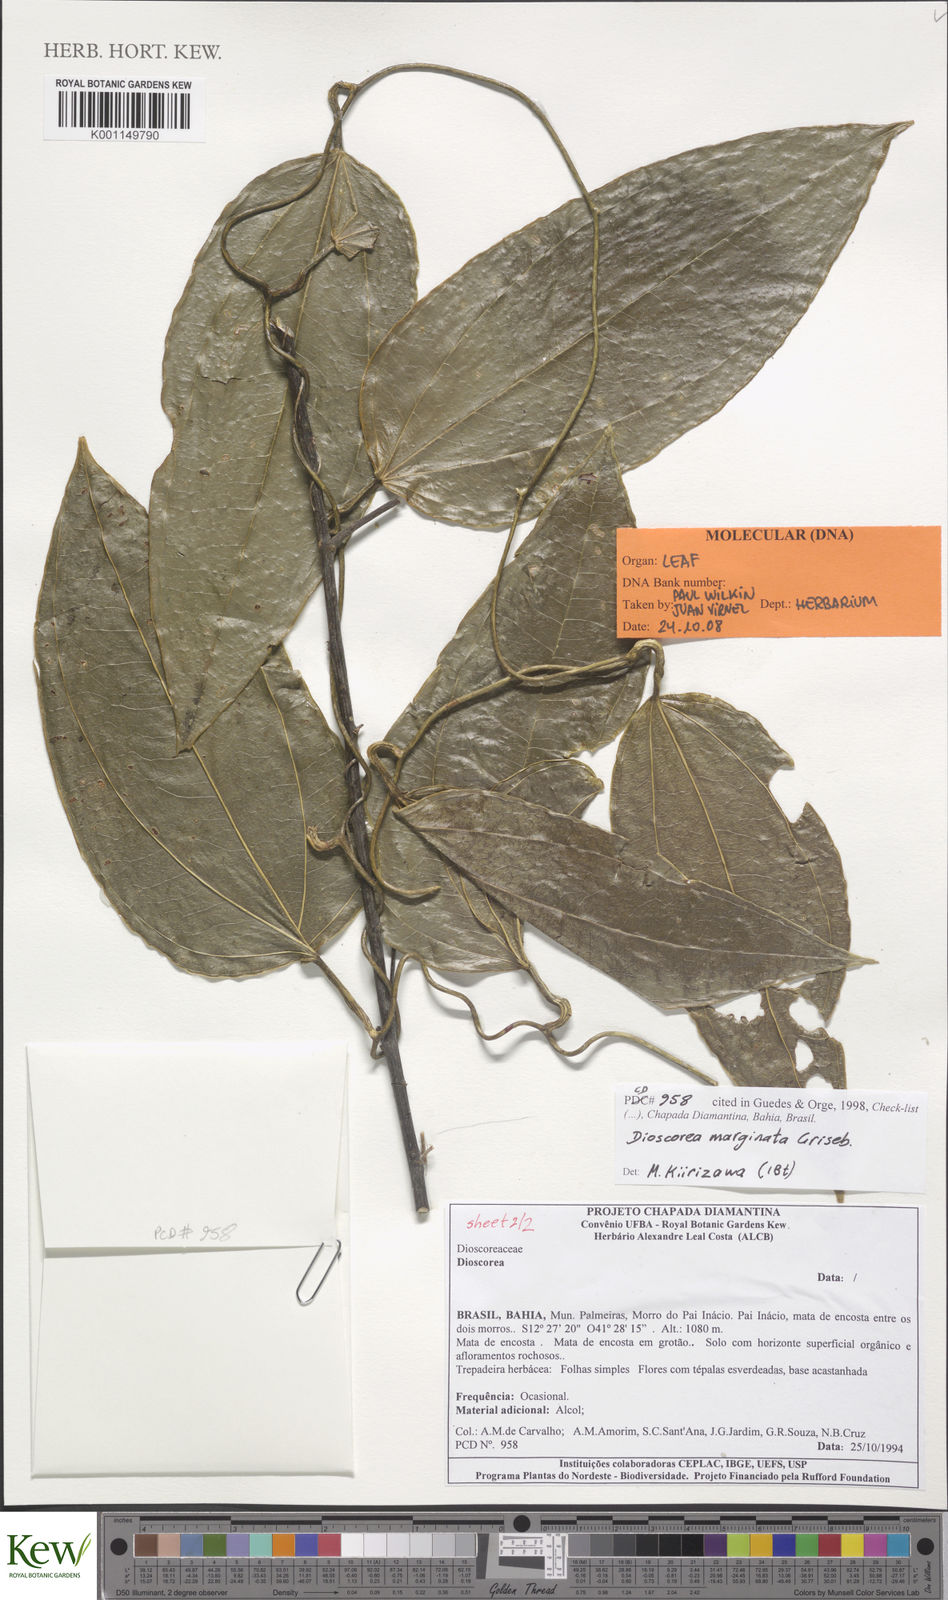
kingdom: Plantae
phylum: Tracheophyta
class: Liliopsida
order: Dioscoreales
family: Dioscoreaceae
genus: Dioscorea
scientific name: Dioscorea marginata
